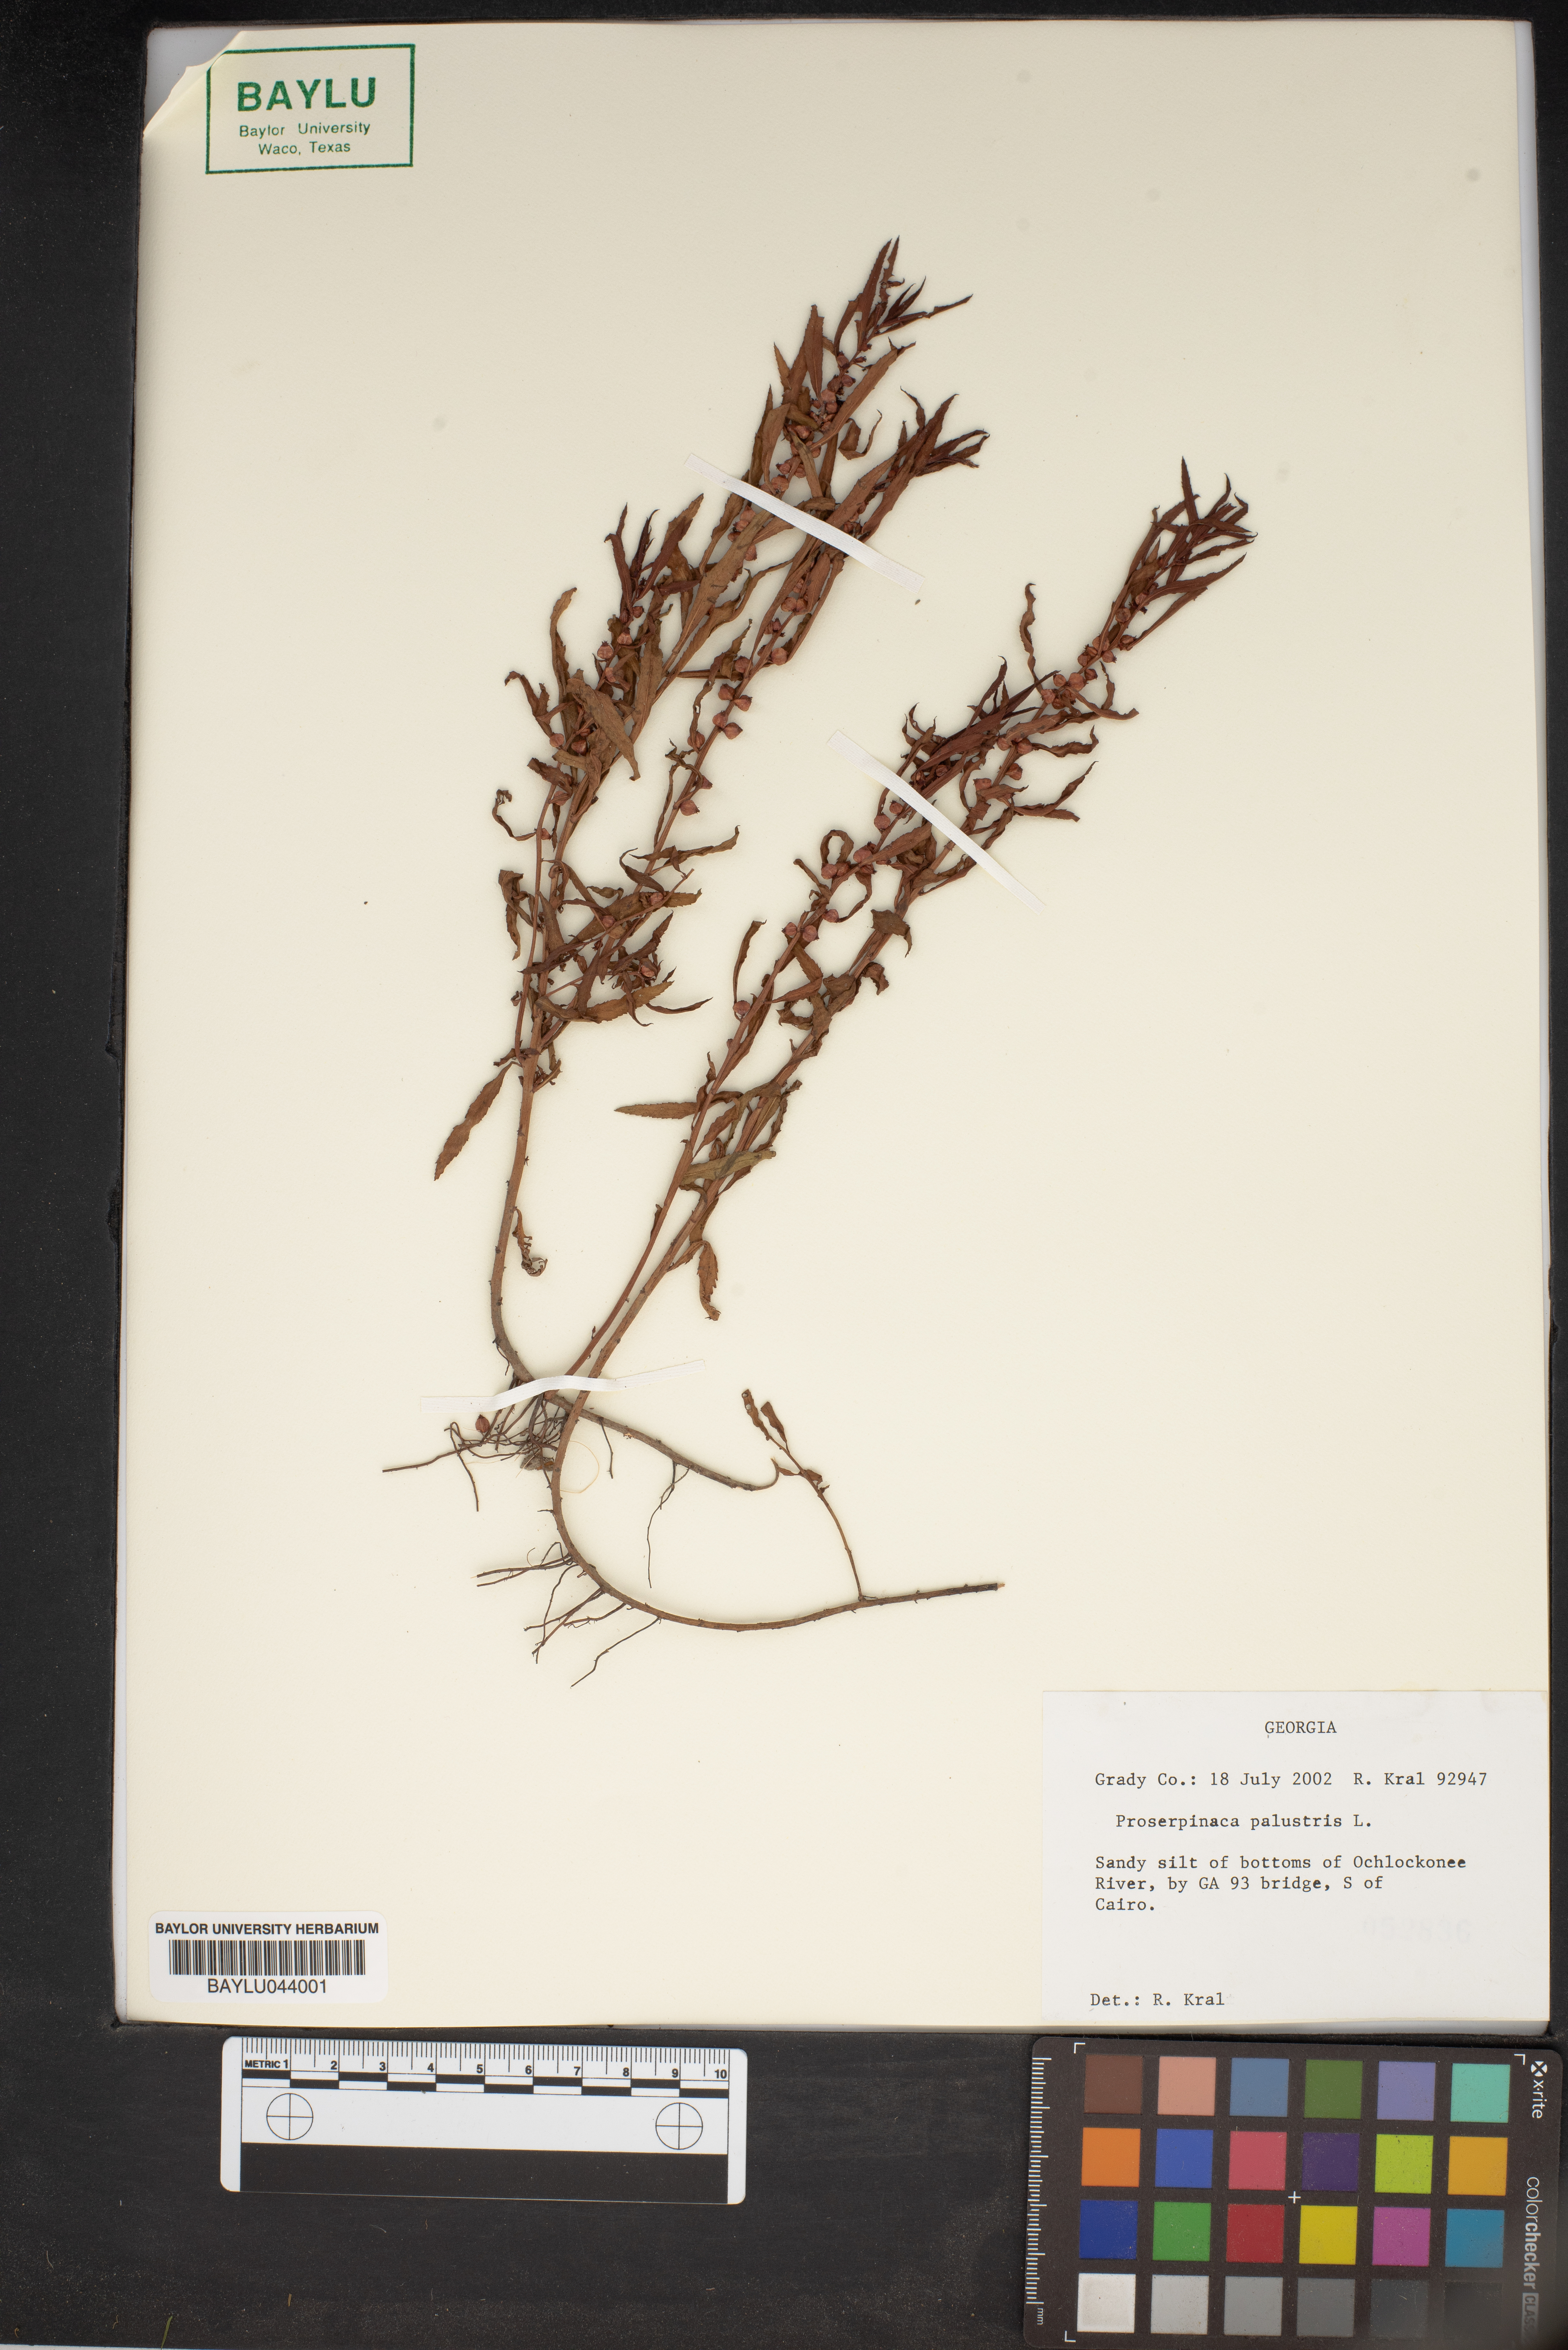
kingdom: Plantae
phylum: Tracheophyta
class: Magnoliopsida
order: Saxifragales
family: Haloragaceae
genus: Proserpinaca
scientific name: Proserpinaca palustris
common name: Marsh mermaidweed
